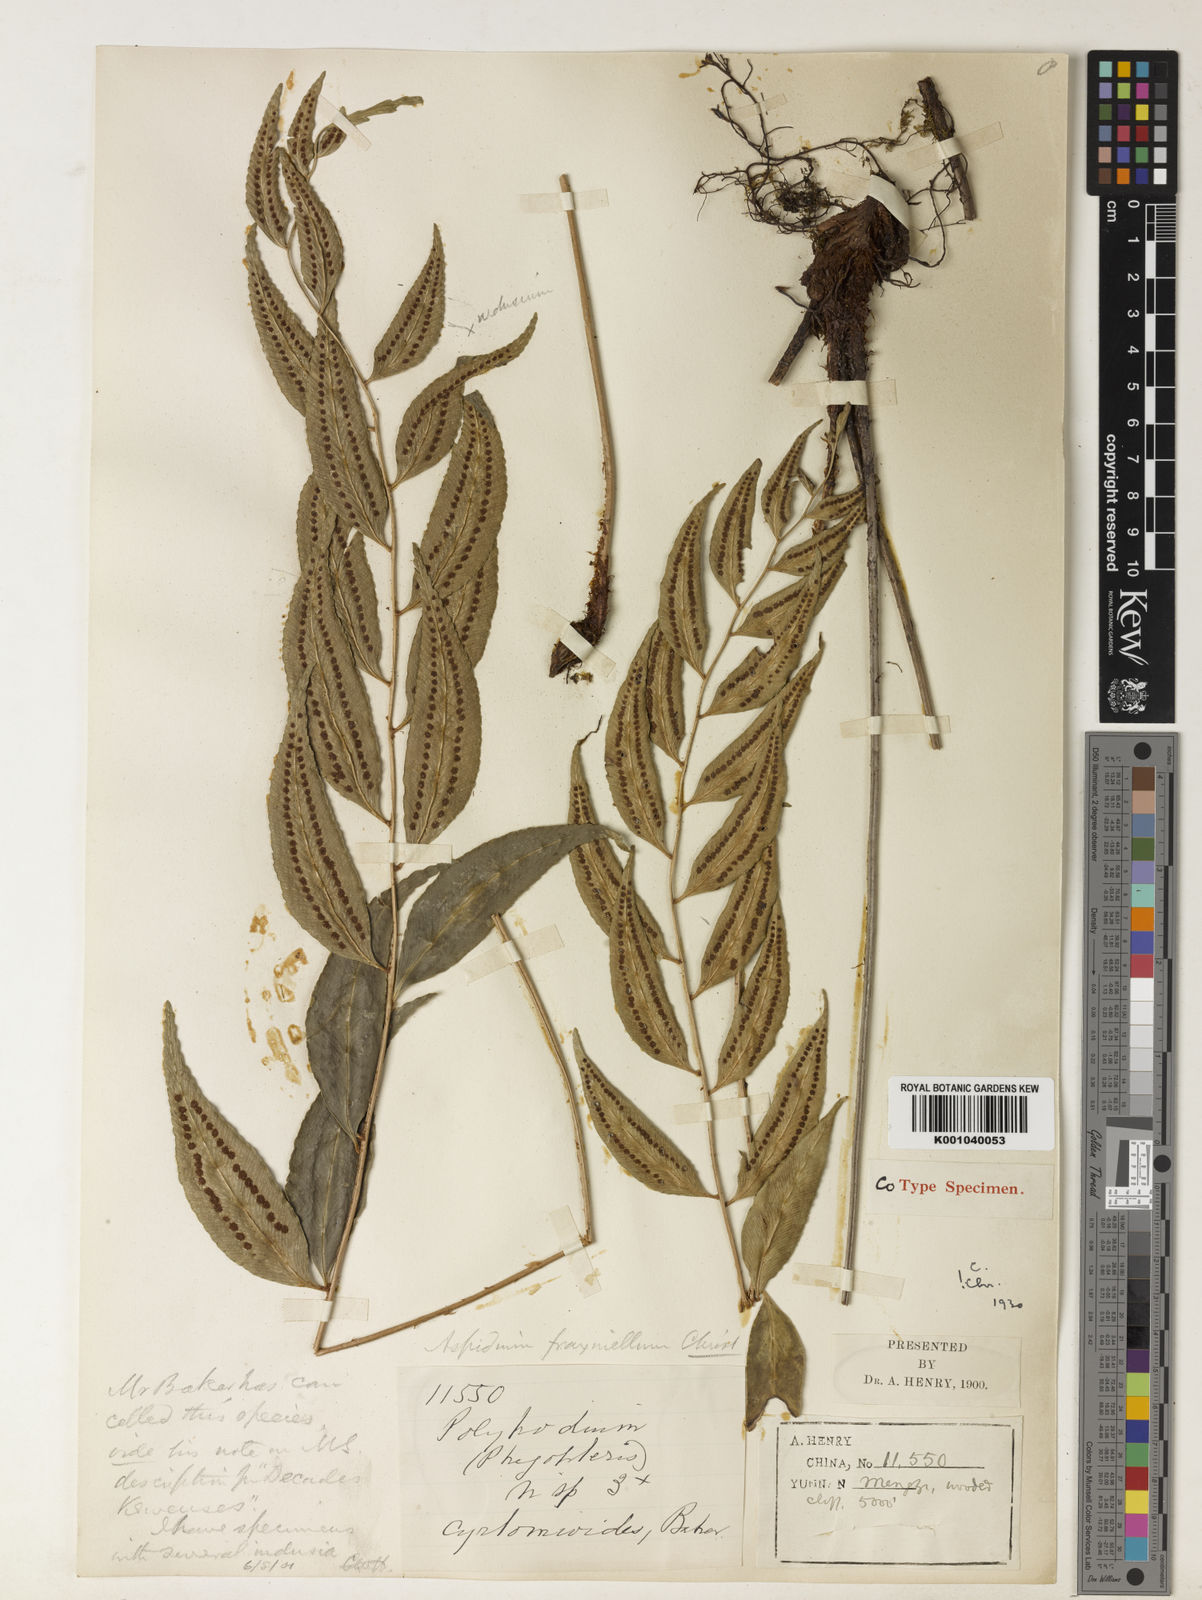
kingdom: Plantae
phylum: Tracheophyta
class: Polypodiopsida
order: Polypodiales
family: Dryopteridaceae
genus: Polystichum
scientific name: Polystichum fraxinellum
